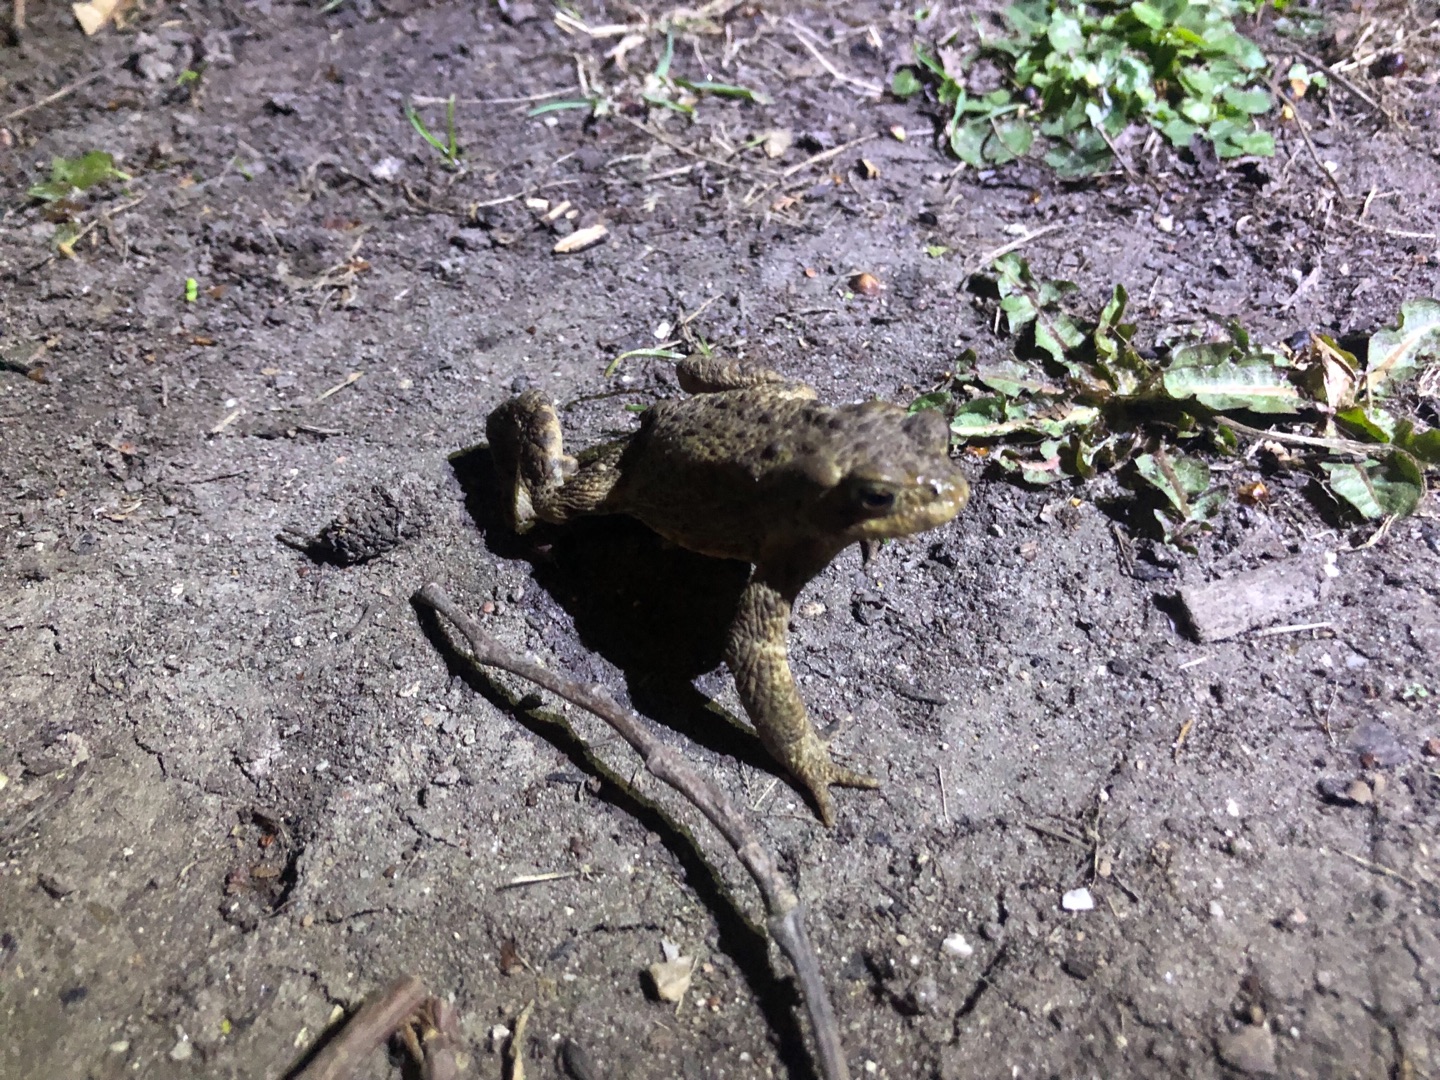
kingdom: Animalia
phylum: Chordata
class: Amphibia
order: Anura
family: Bufonidae
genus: Bufo
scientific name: Bufo bufo
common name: Skrubtudse
